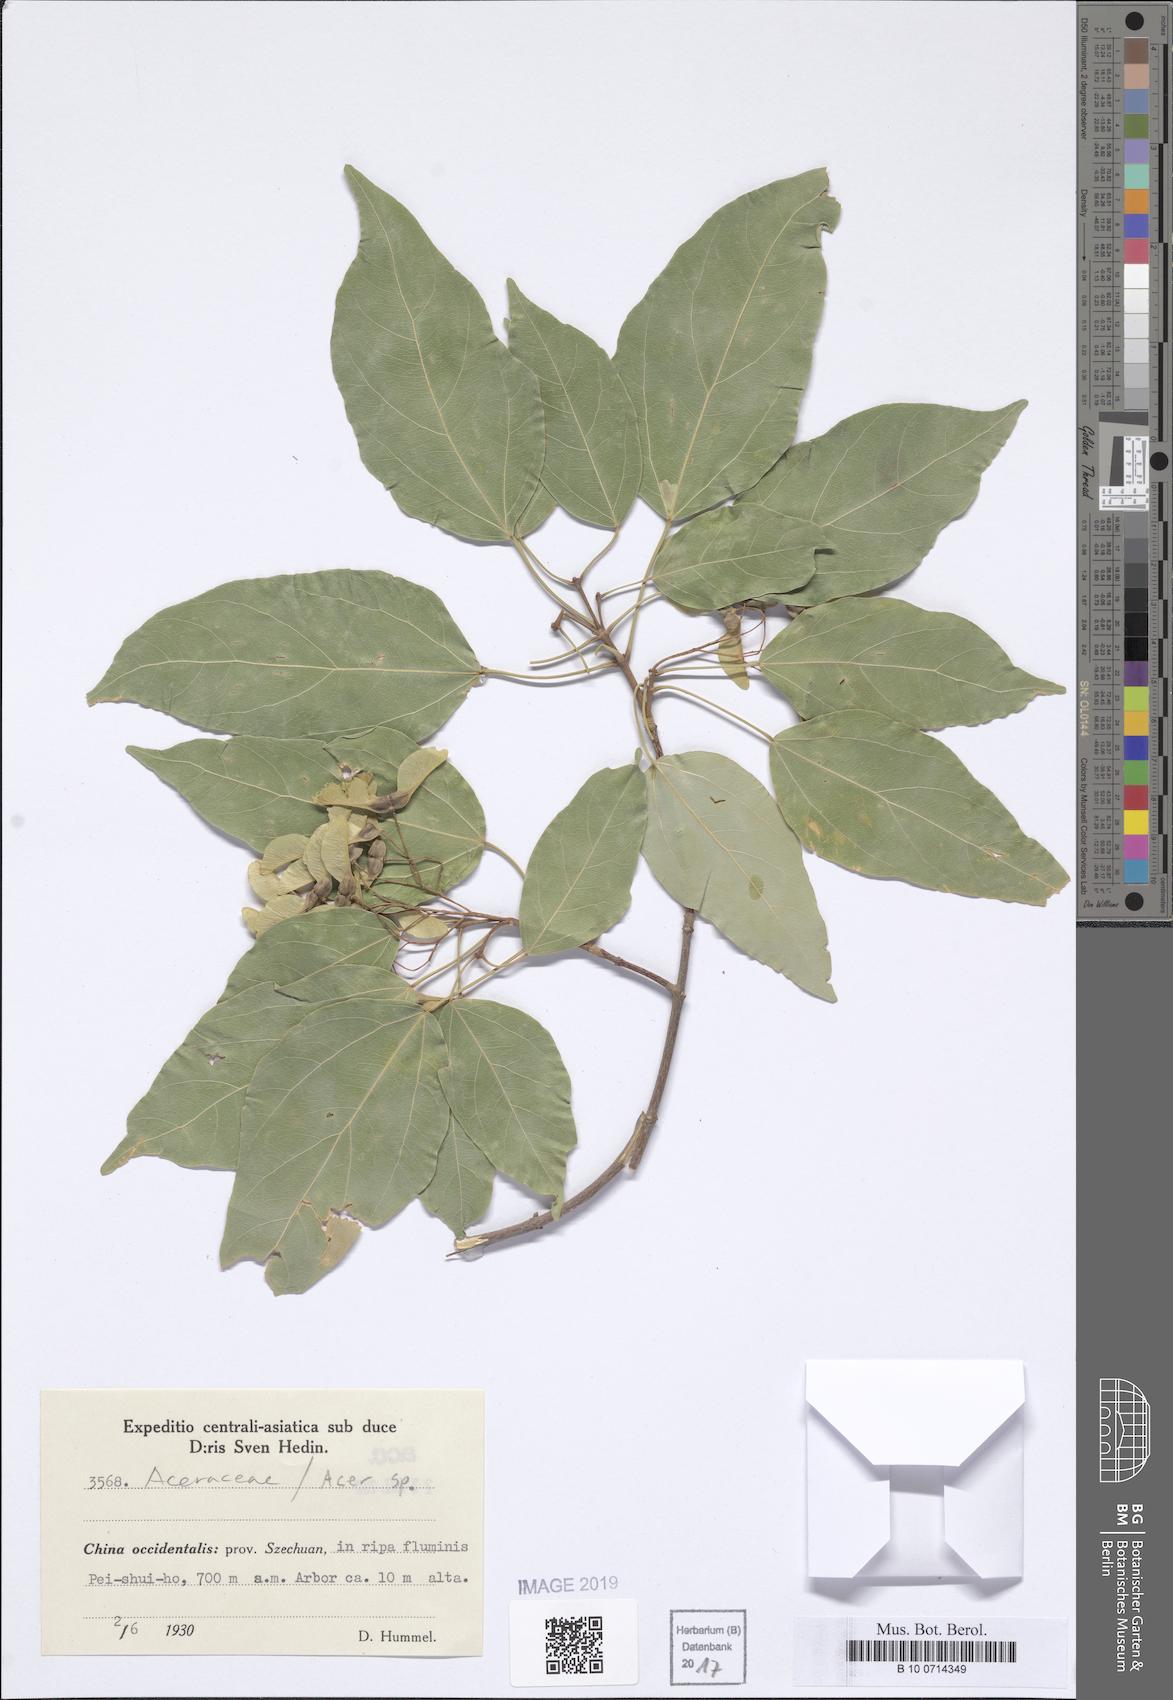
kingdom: Plantae
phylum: Tracheophyta
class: Magnoliopsida
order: Sapindales
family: Sapindaceae
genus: Acer
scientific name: Acer
